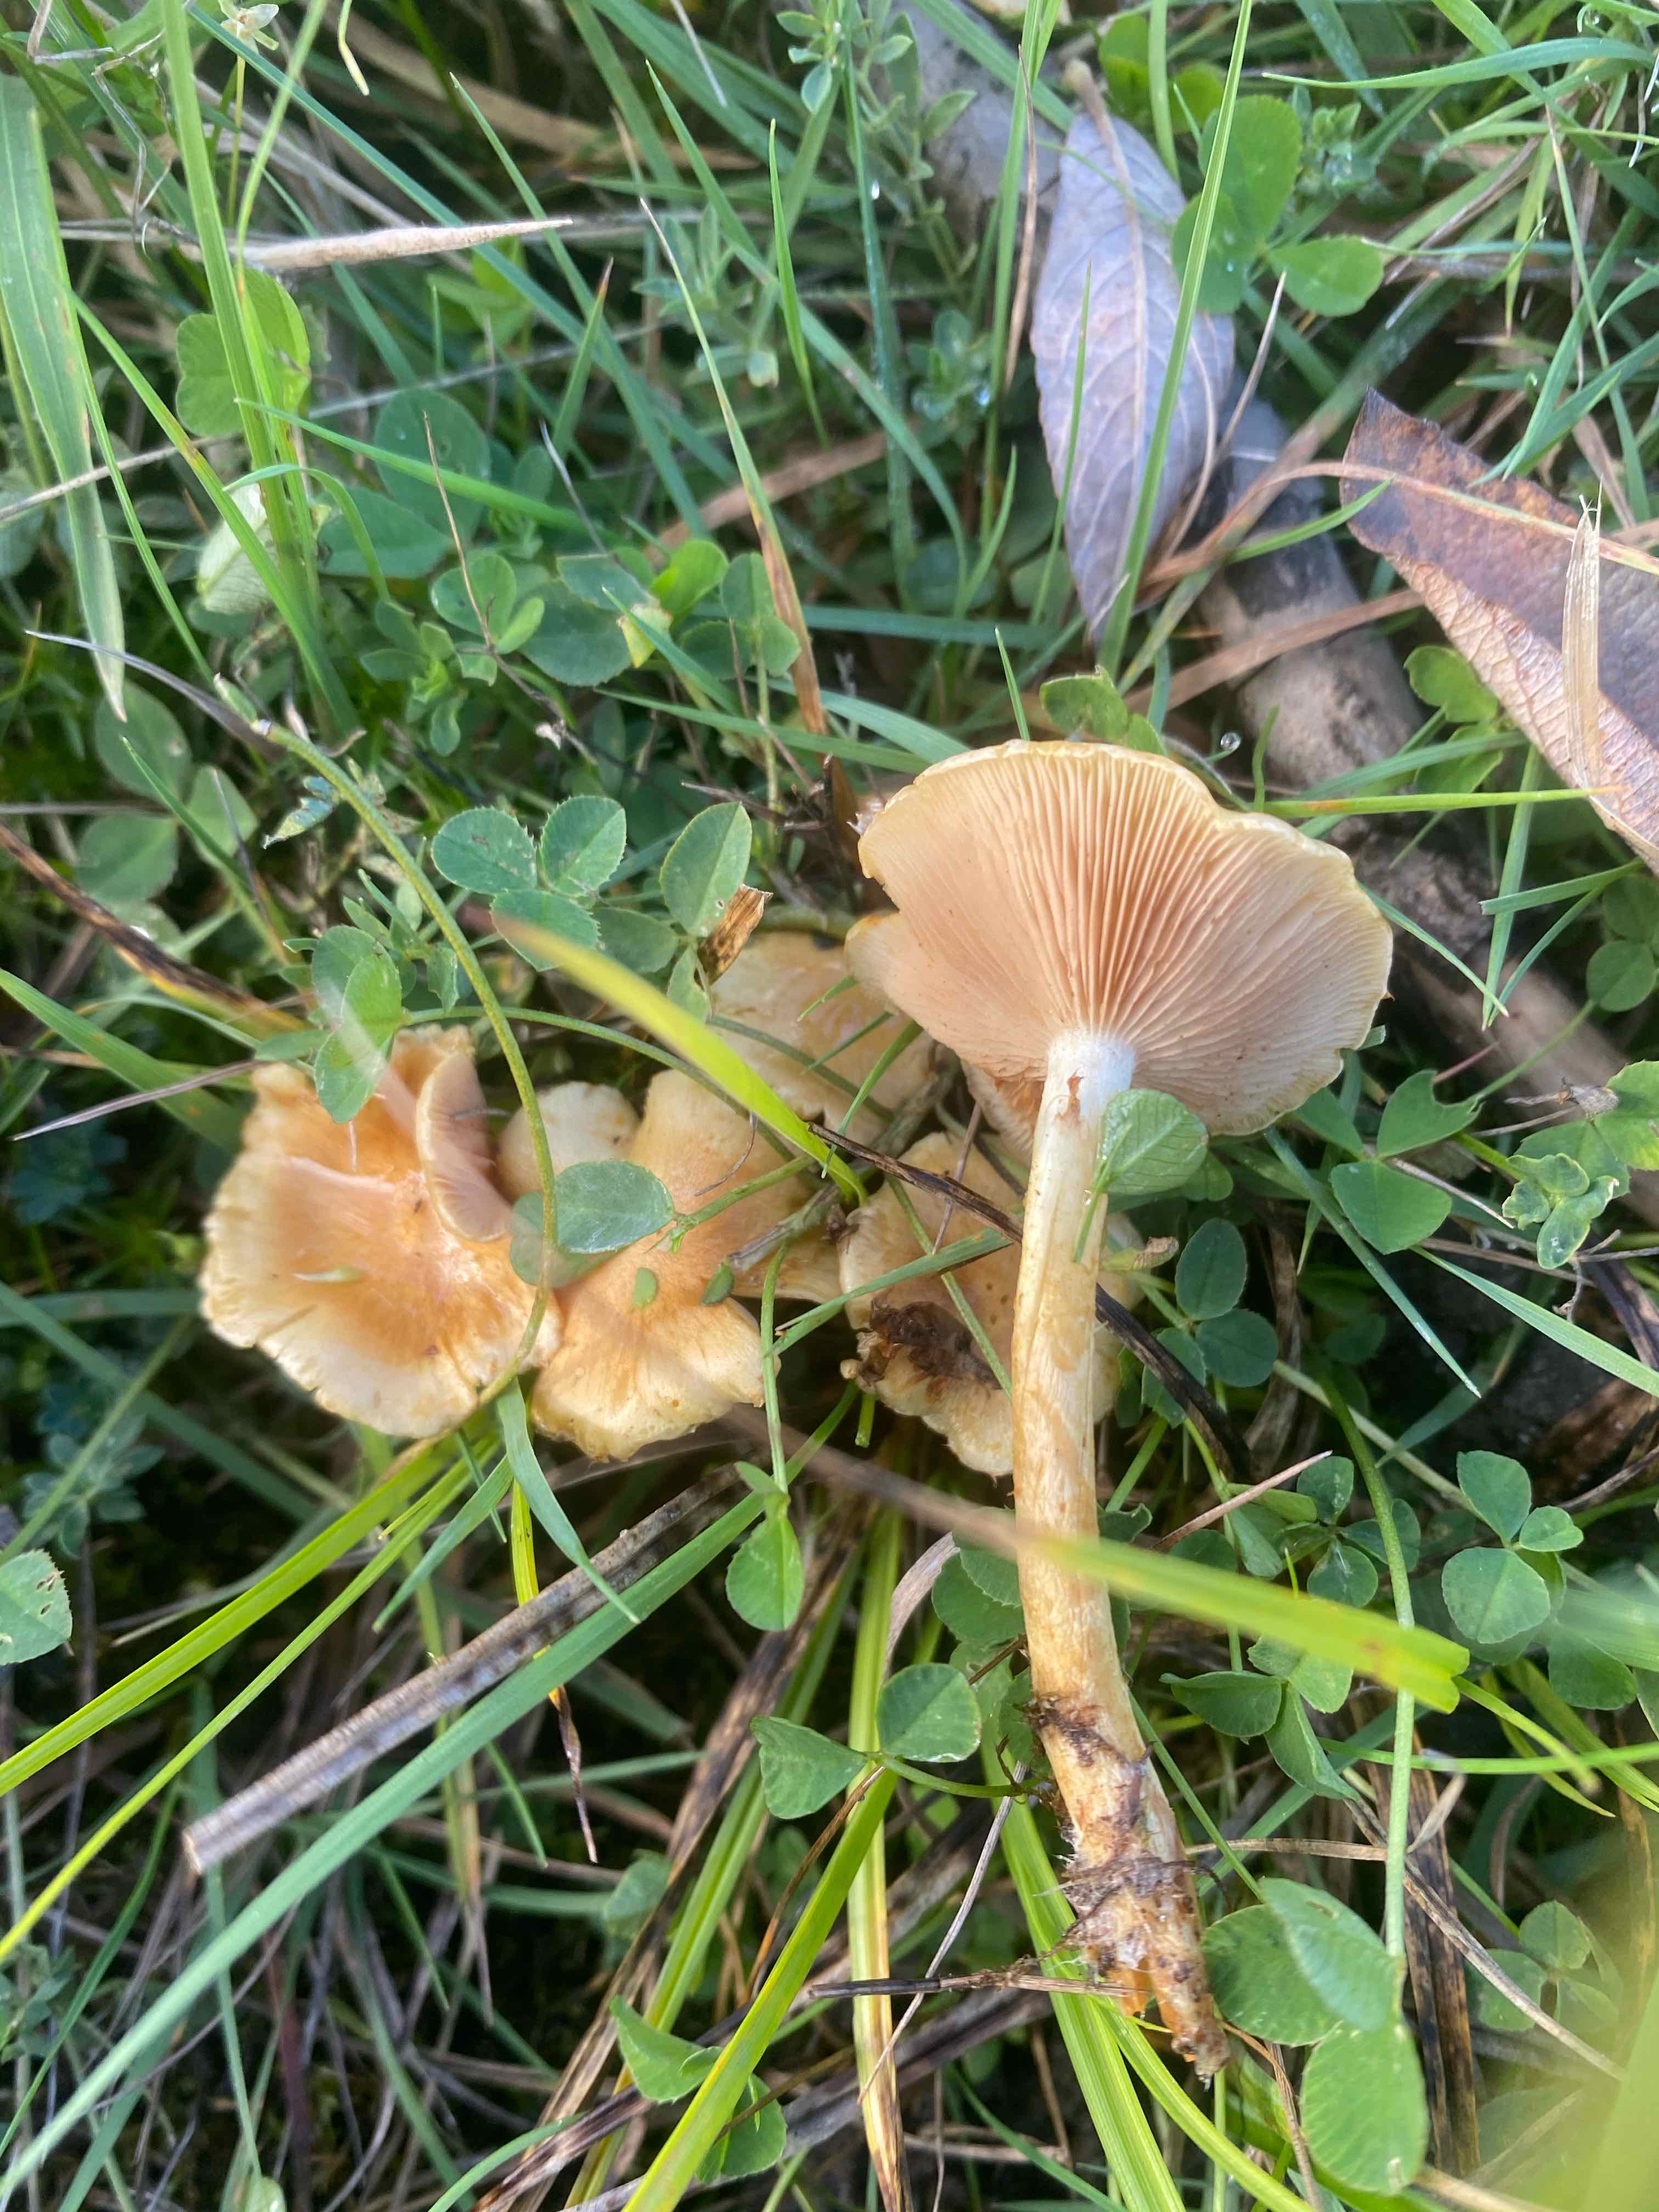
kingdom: Fungi
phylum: Basidiomycota
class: Agaricomycetes
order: Agaricales
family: Strophariaceae
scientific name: Strophariaceae
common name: bredbladfamilien
